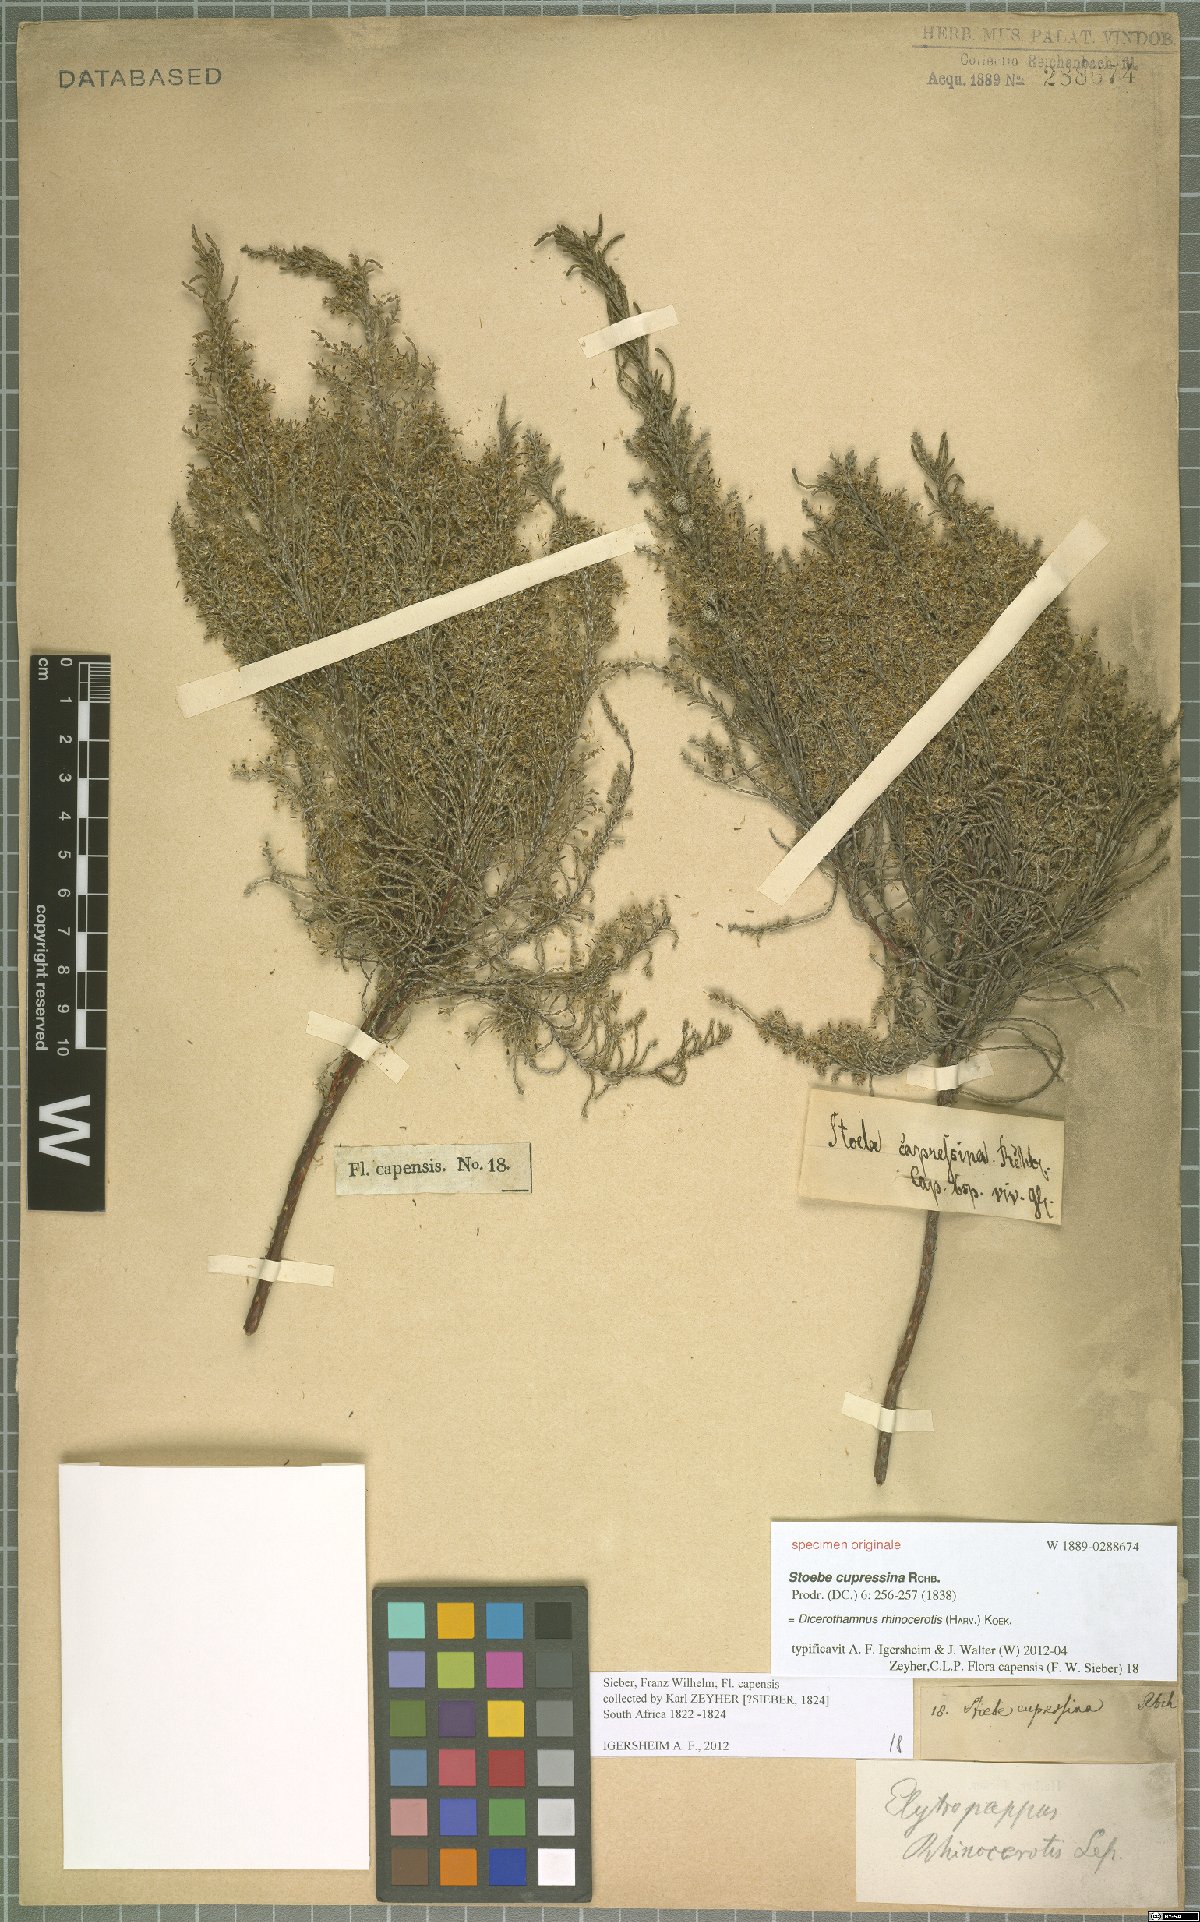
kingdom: Plantae
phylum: Tracheophyta
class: Magnoliopsida
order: Asterales
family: Asteraceae
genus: Dicerothamnus
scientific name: Dicerothamnus rhinocerotis
